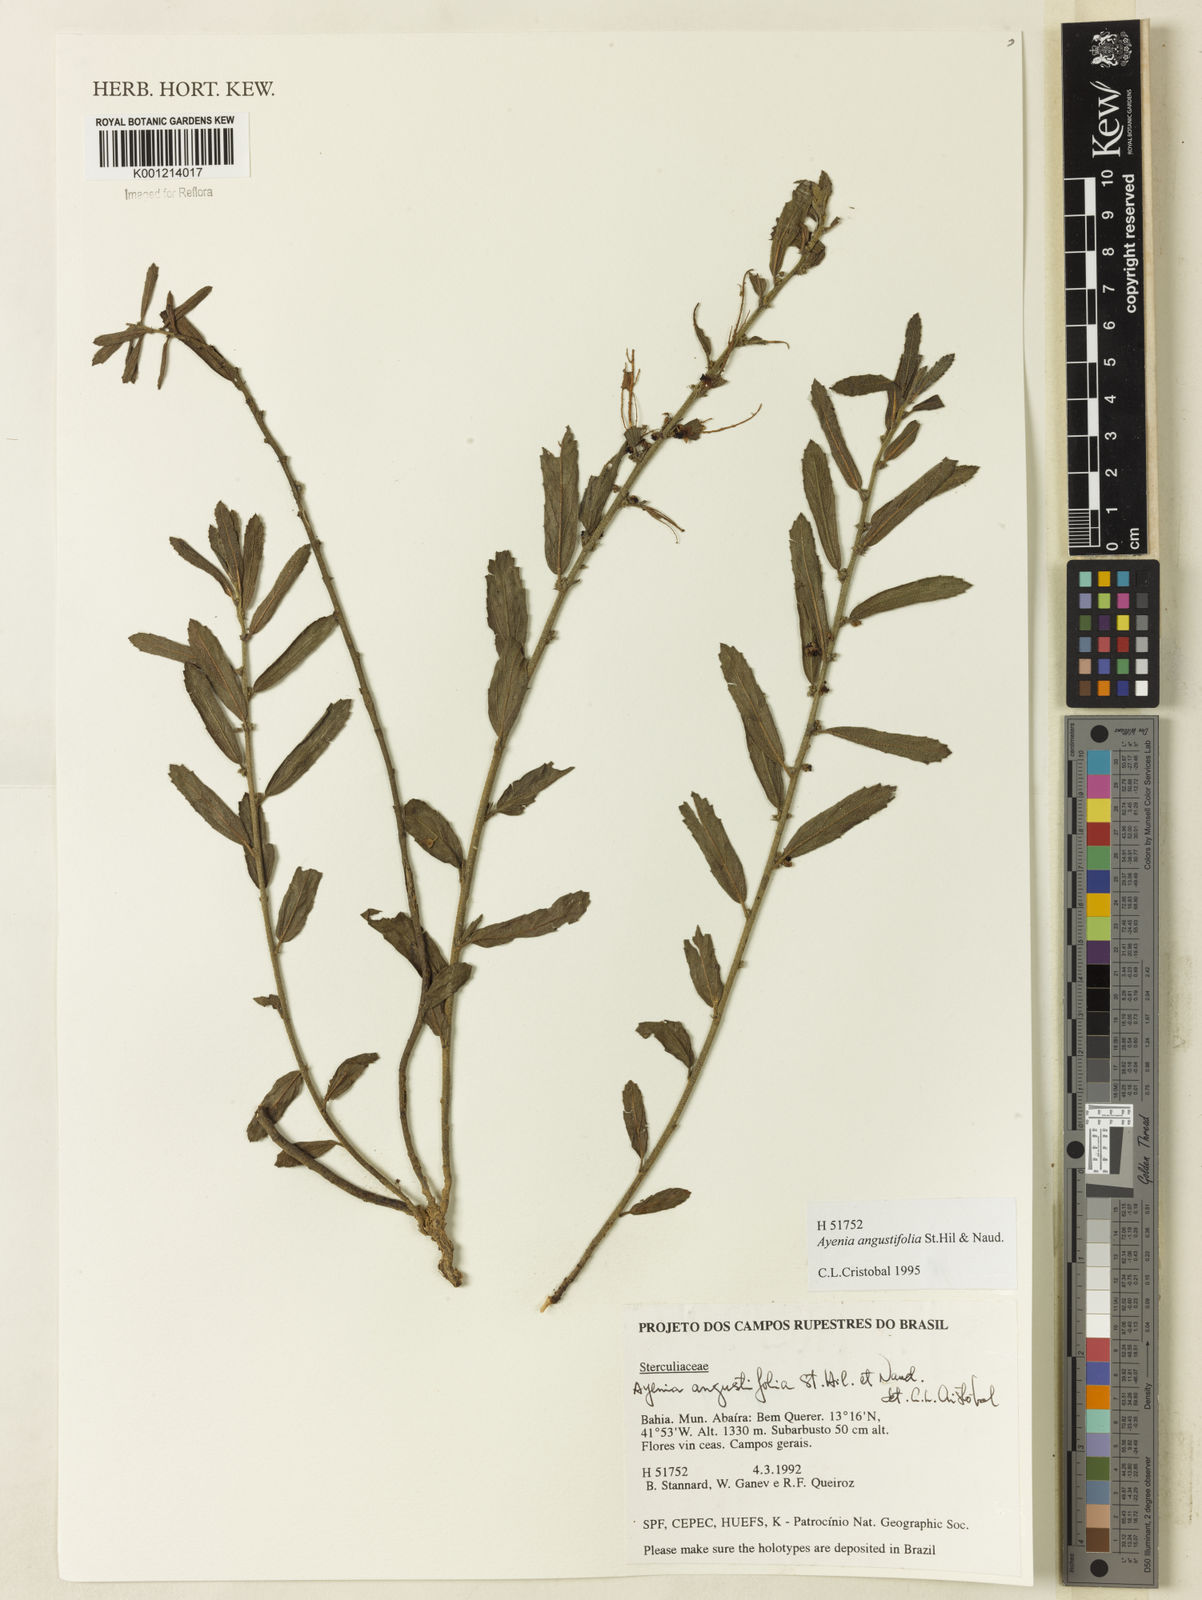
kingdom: Plantae
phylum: Tracheophyta
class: Magnoliopsida
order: Malvales
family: Malvaceae
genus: Ayenia
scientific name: Ayenia angustifolia
